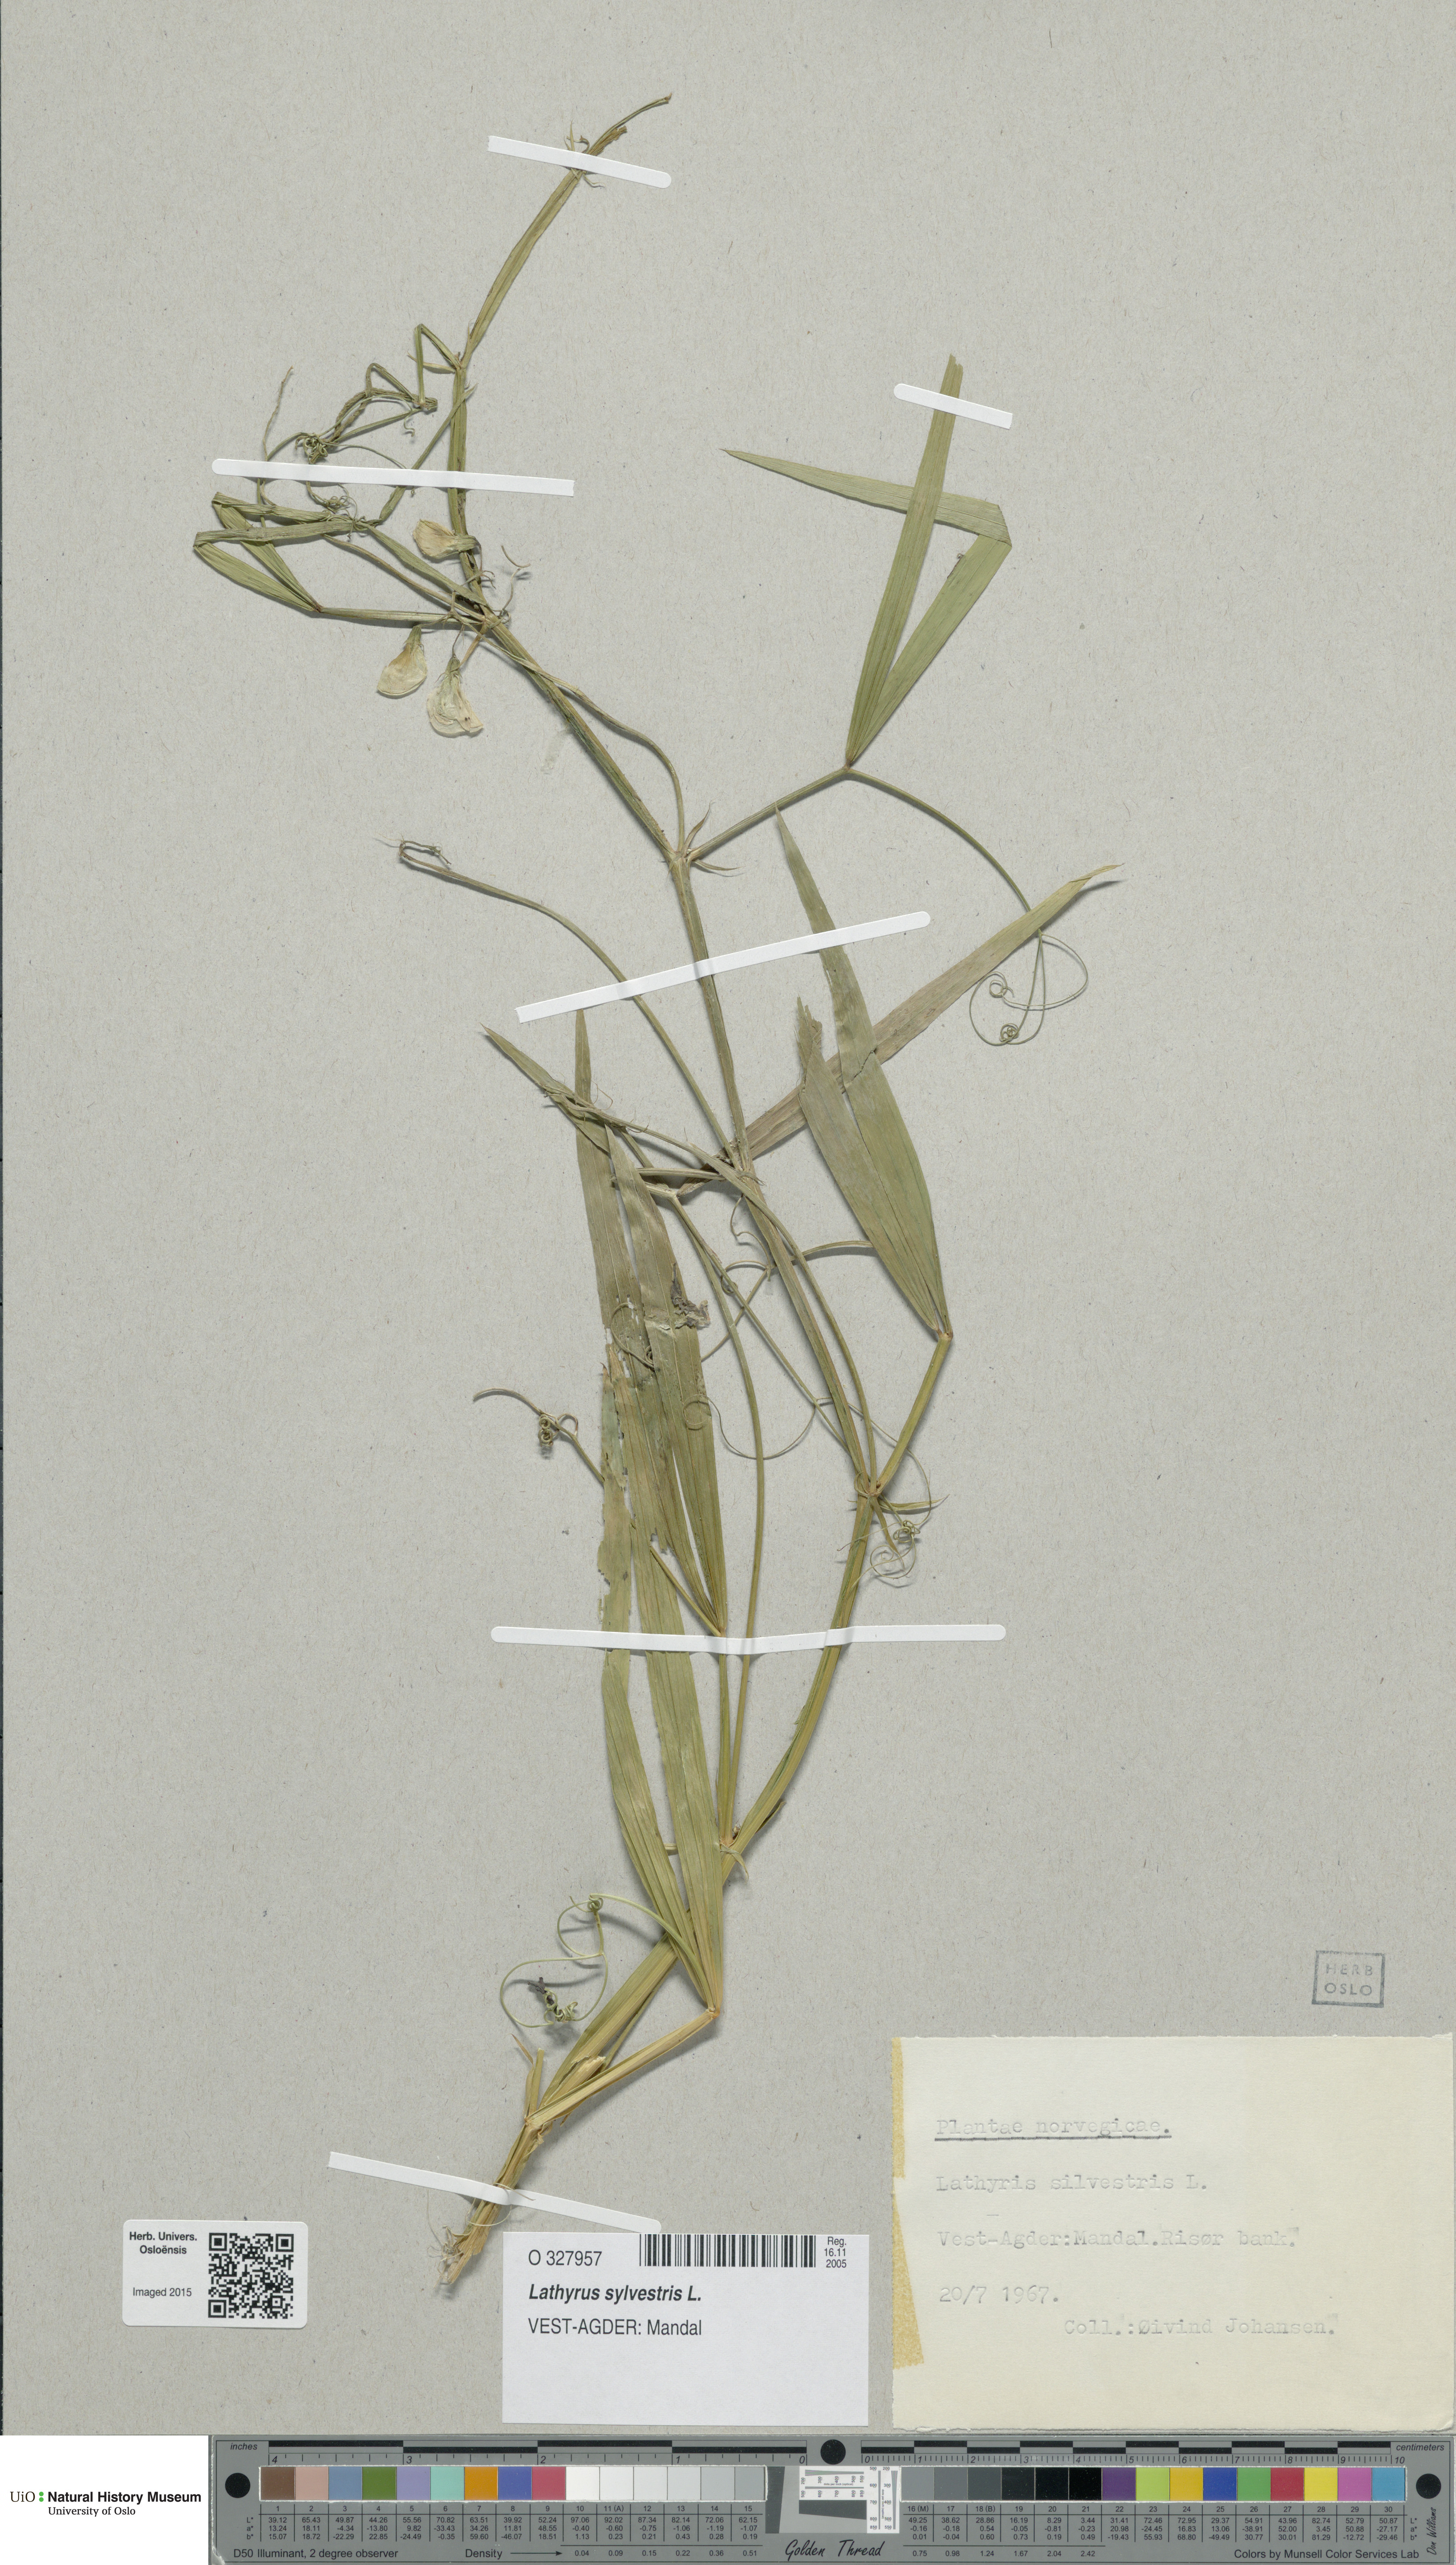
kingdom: Plantae
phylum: Tracheophyta
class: Magnoliopsida
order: Fabales
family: Fabaceae
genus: Lathyrus
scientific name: Lathyrus sylvestris
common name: Flat pea
